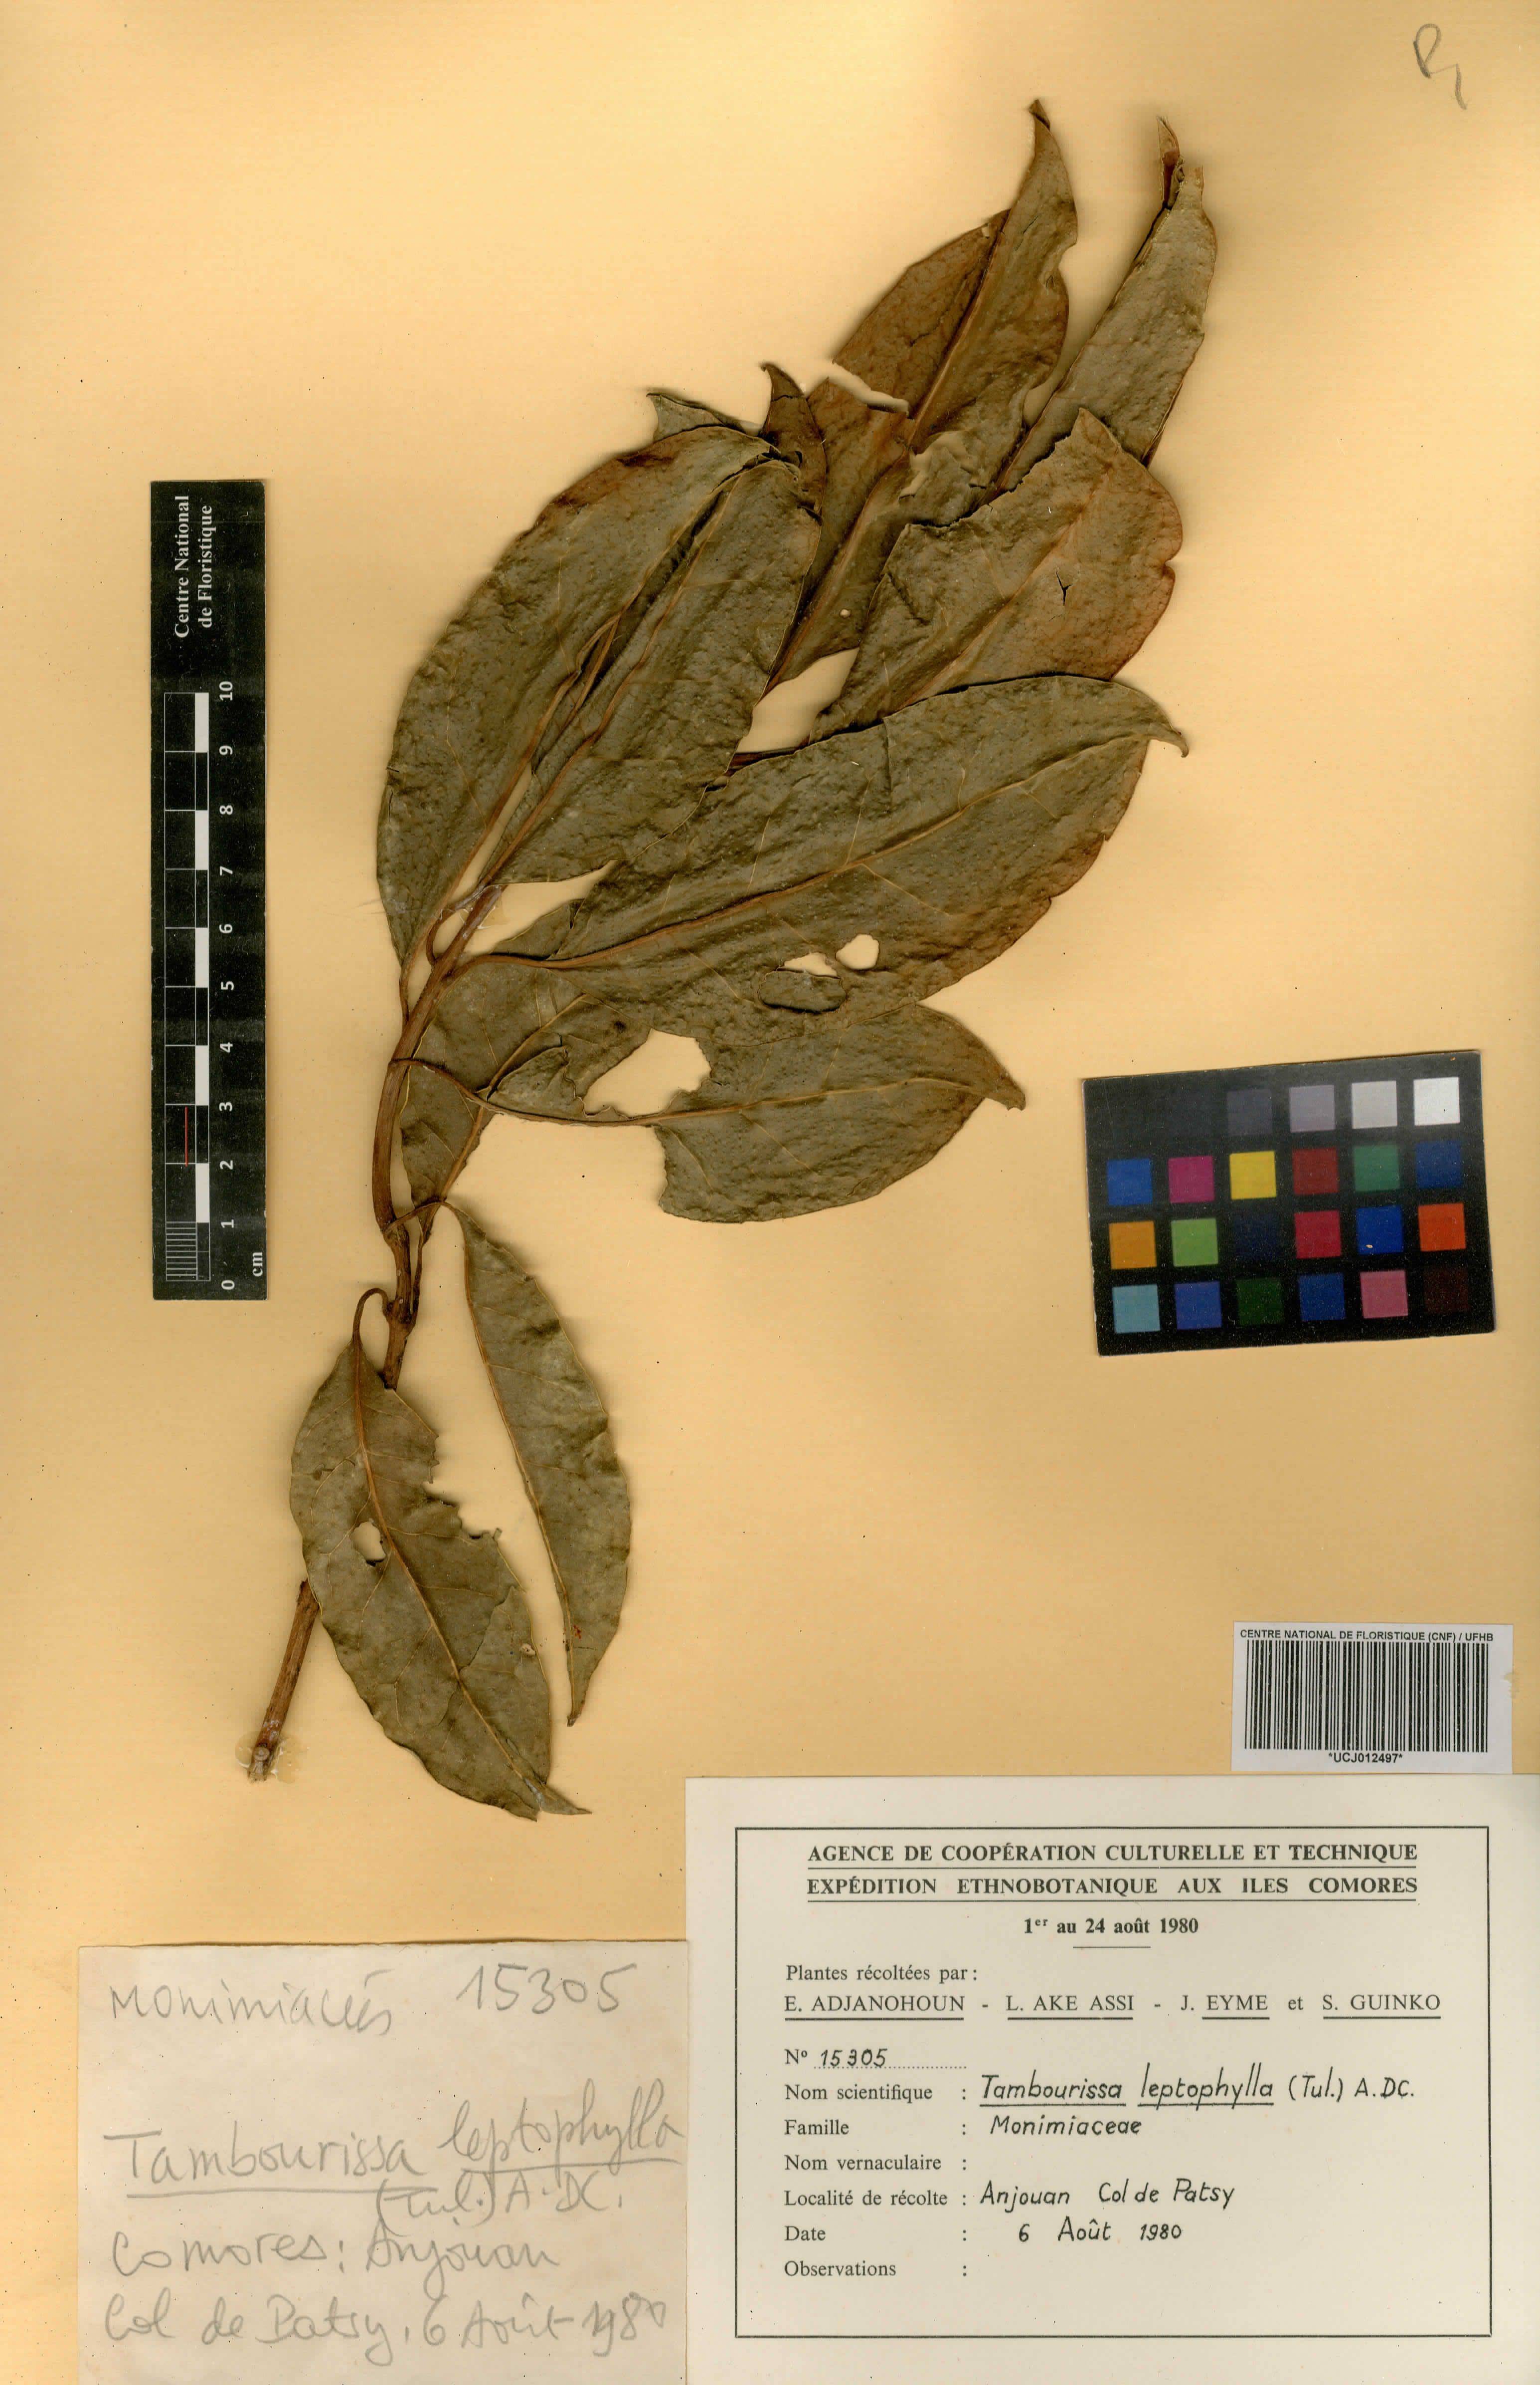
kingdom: Plantae
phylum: Tracheophyta
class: Magnoliopsida
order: Laurales
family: Monimiaceae
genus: Tambourissa
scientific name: Tambourissa leptophylla
